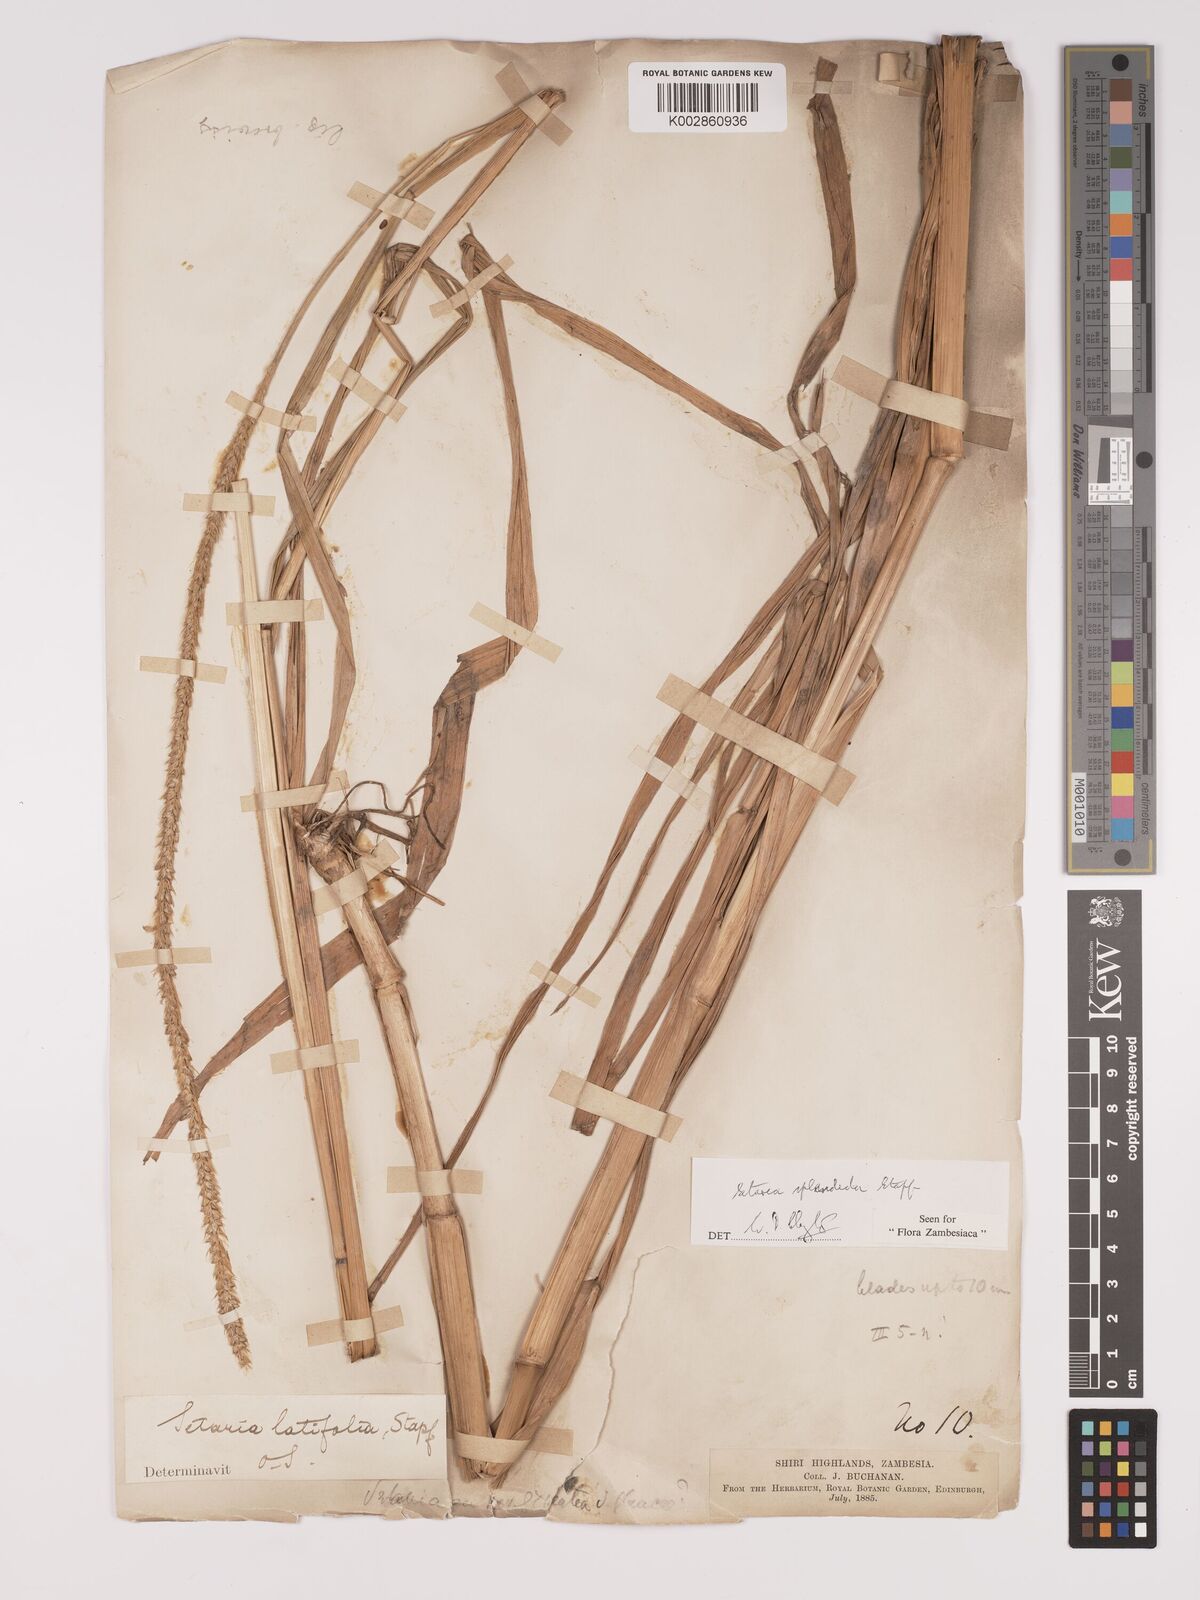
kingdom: Plantae
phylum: Tracheophyta
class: Liliopsida
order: Poales
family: Poaceae
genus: Setaria
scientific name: Setaria sphacelata
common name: African bristlegrass
